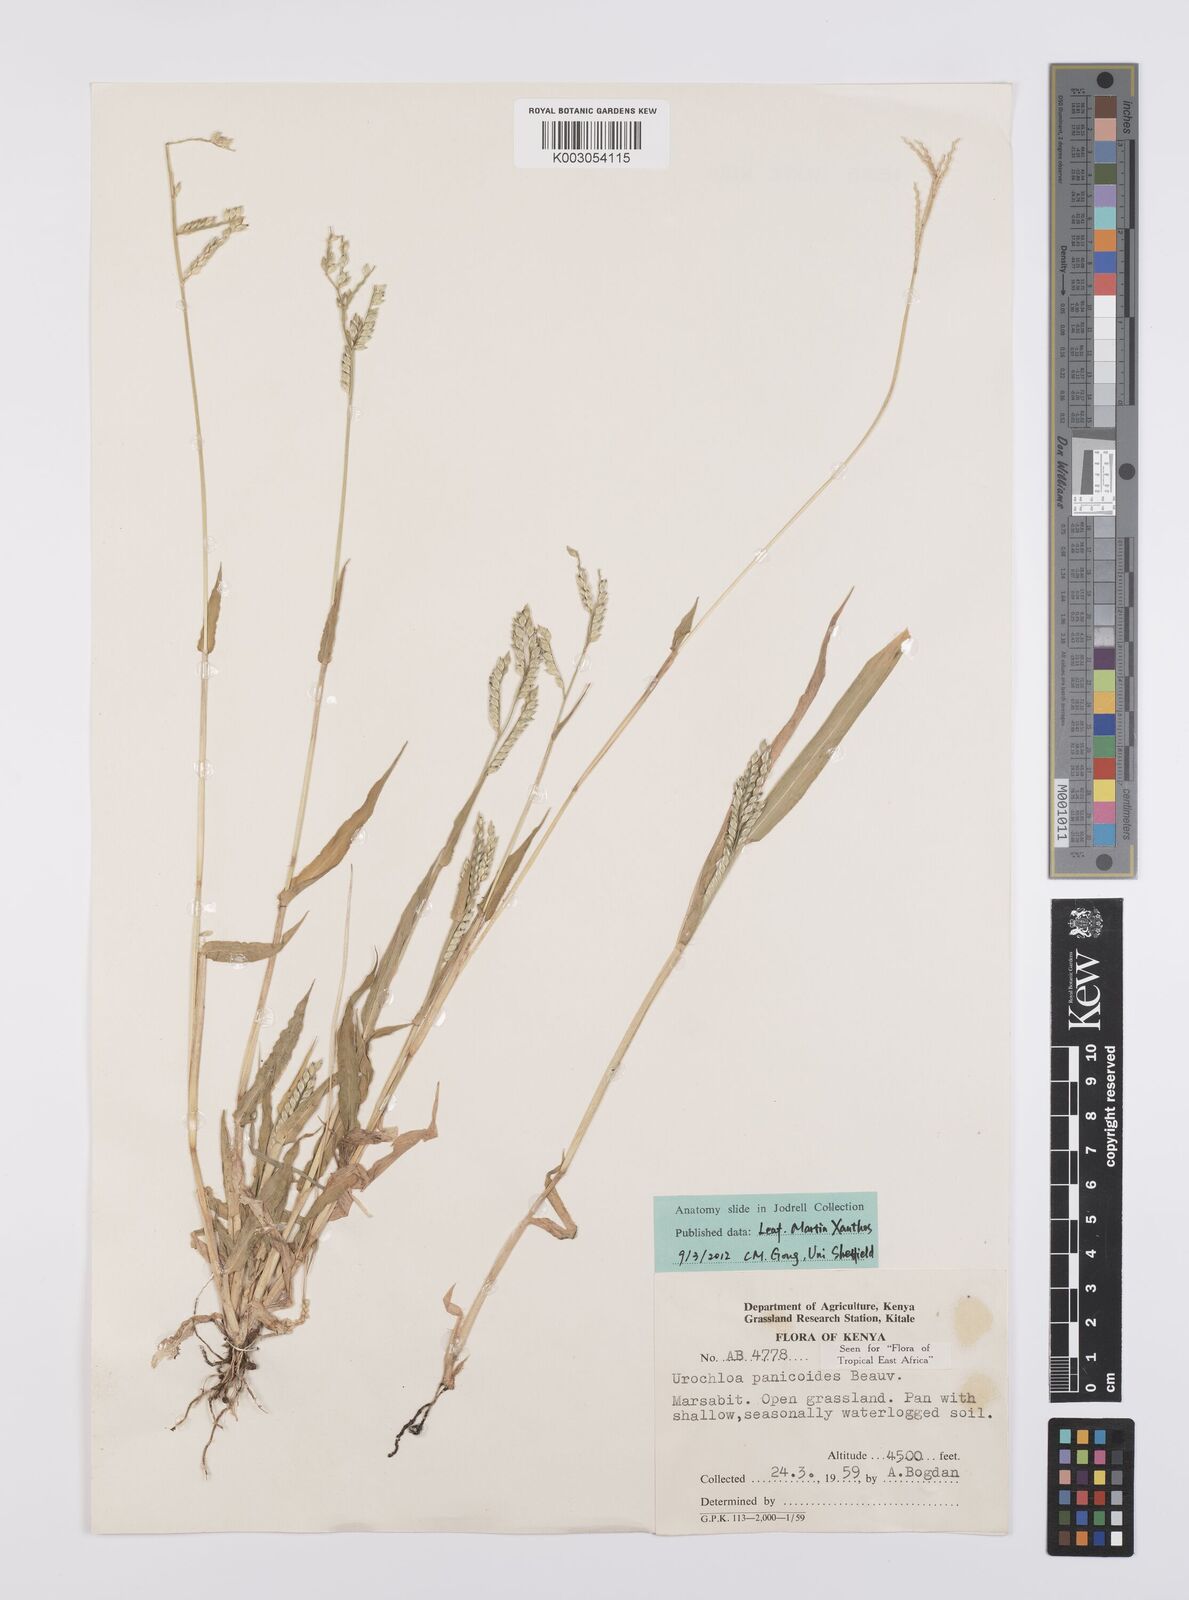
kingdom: Plantae
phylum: Tracheophyta
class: Liliopsida
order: Poales
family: Poaceae
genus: Urochloa
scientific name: Urochloa panicoides
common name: Sharp-flowered signal-grass
